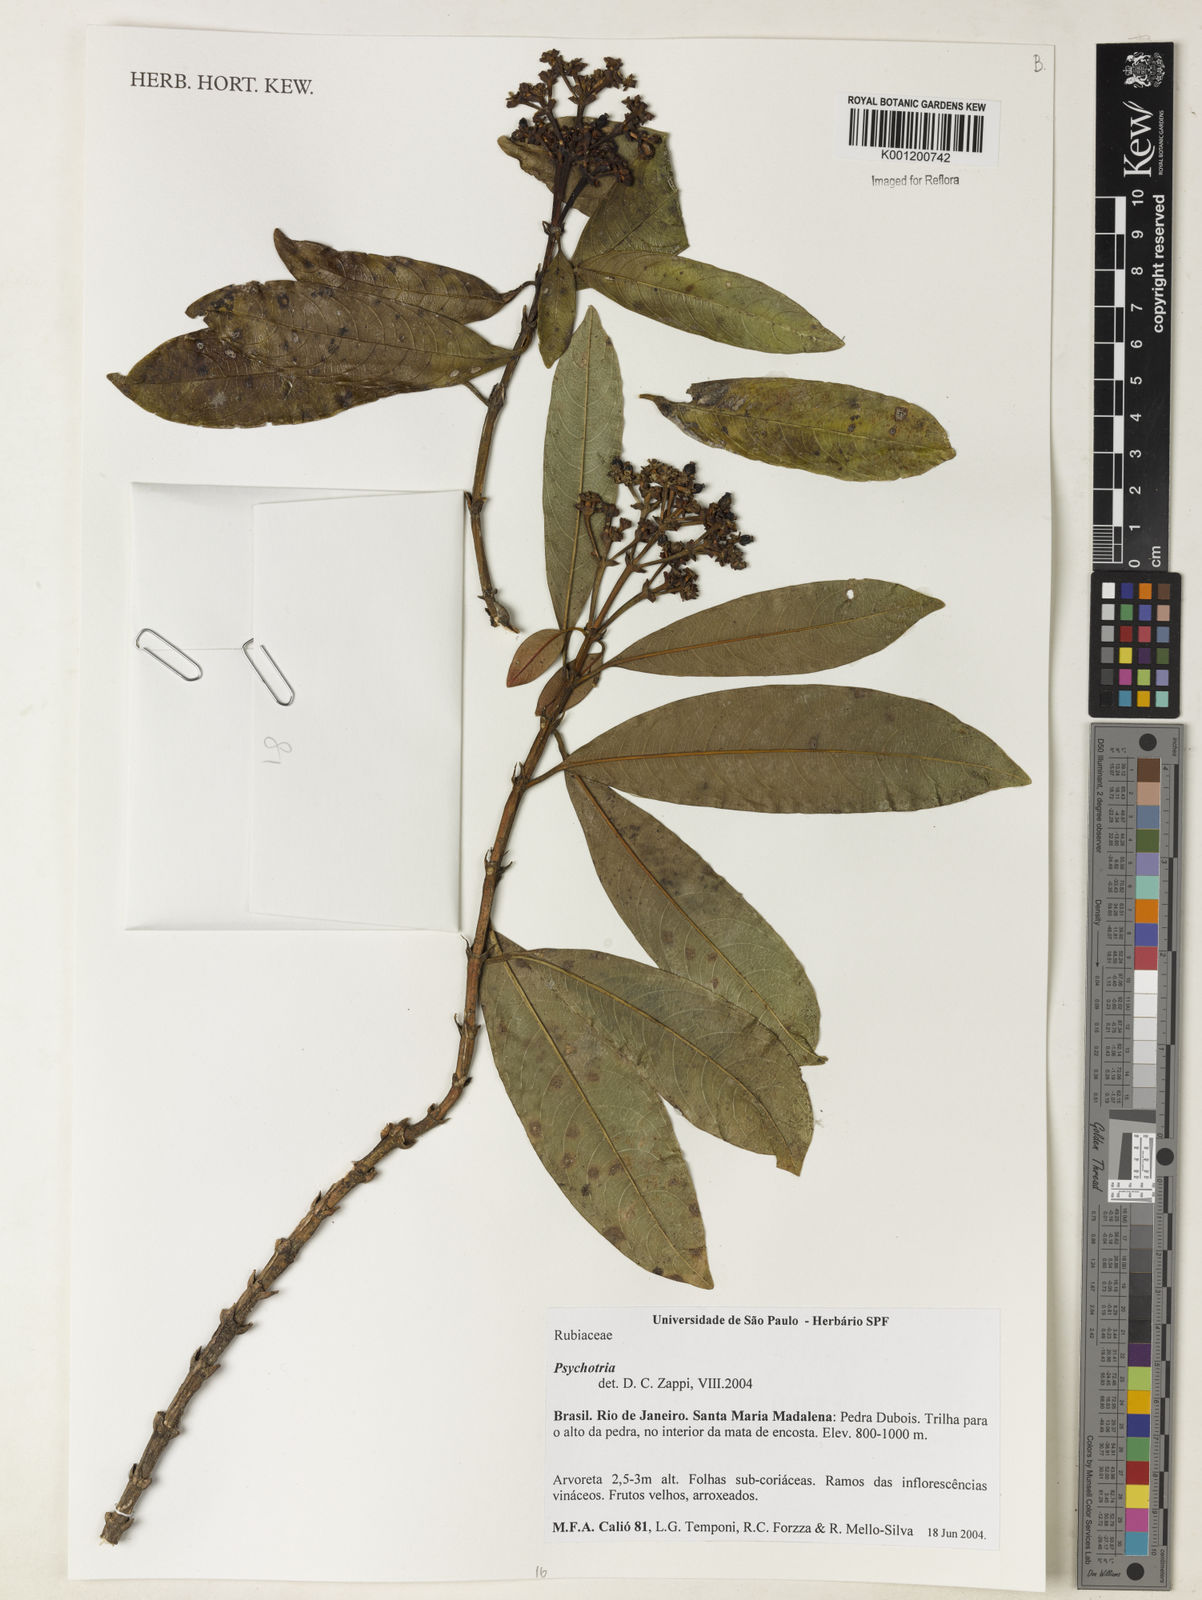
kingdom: Plantae
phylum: Tracheophyta
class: Magnoliopsida
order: Gentianales
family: Rubiaceae
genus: Psychotria
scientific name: Psychotria
